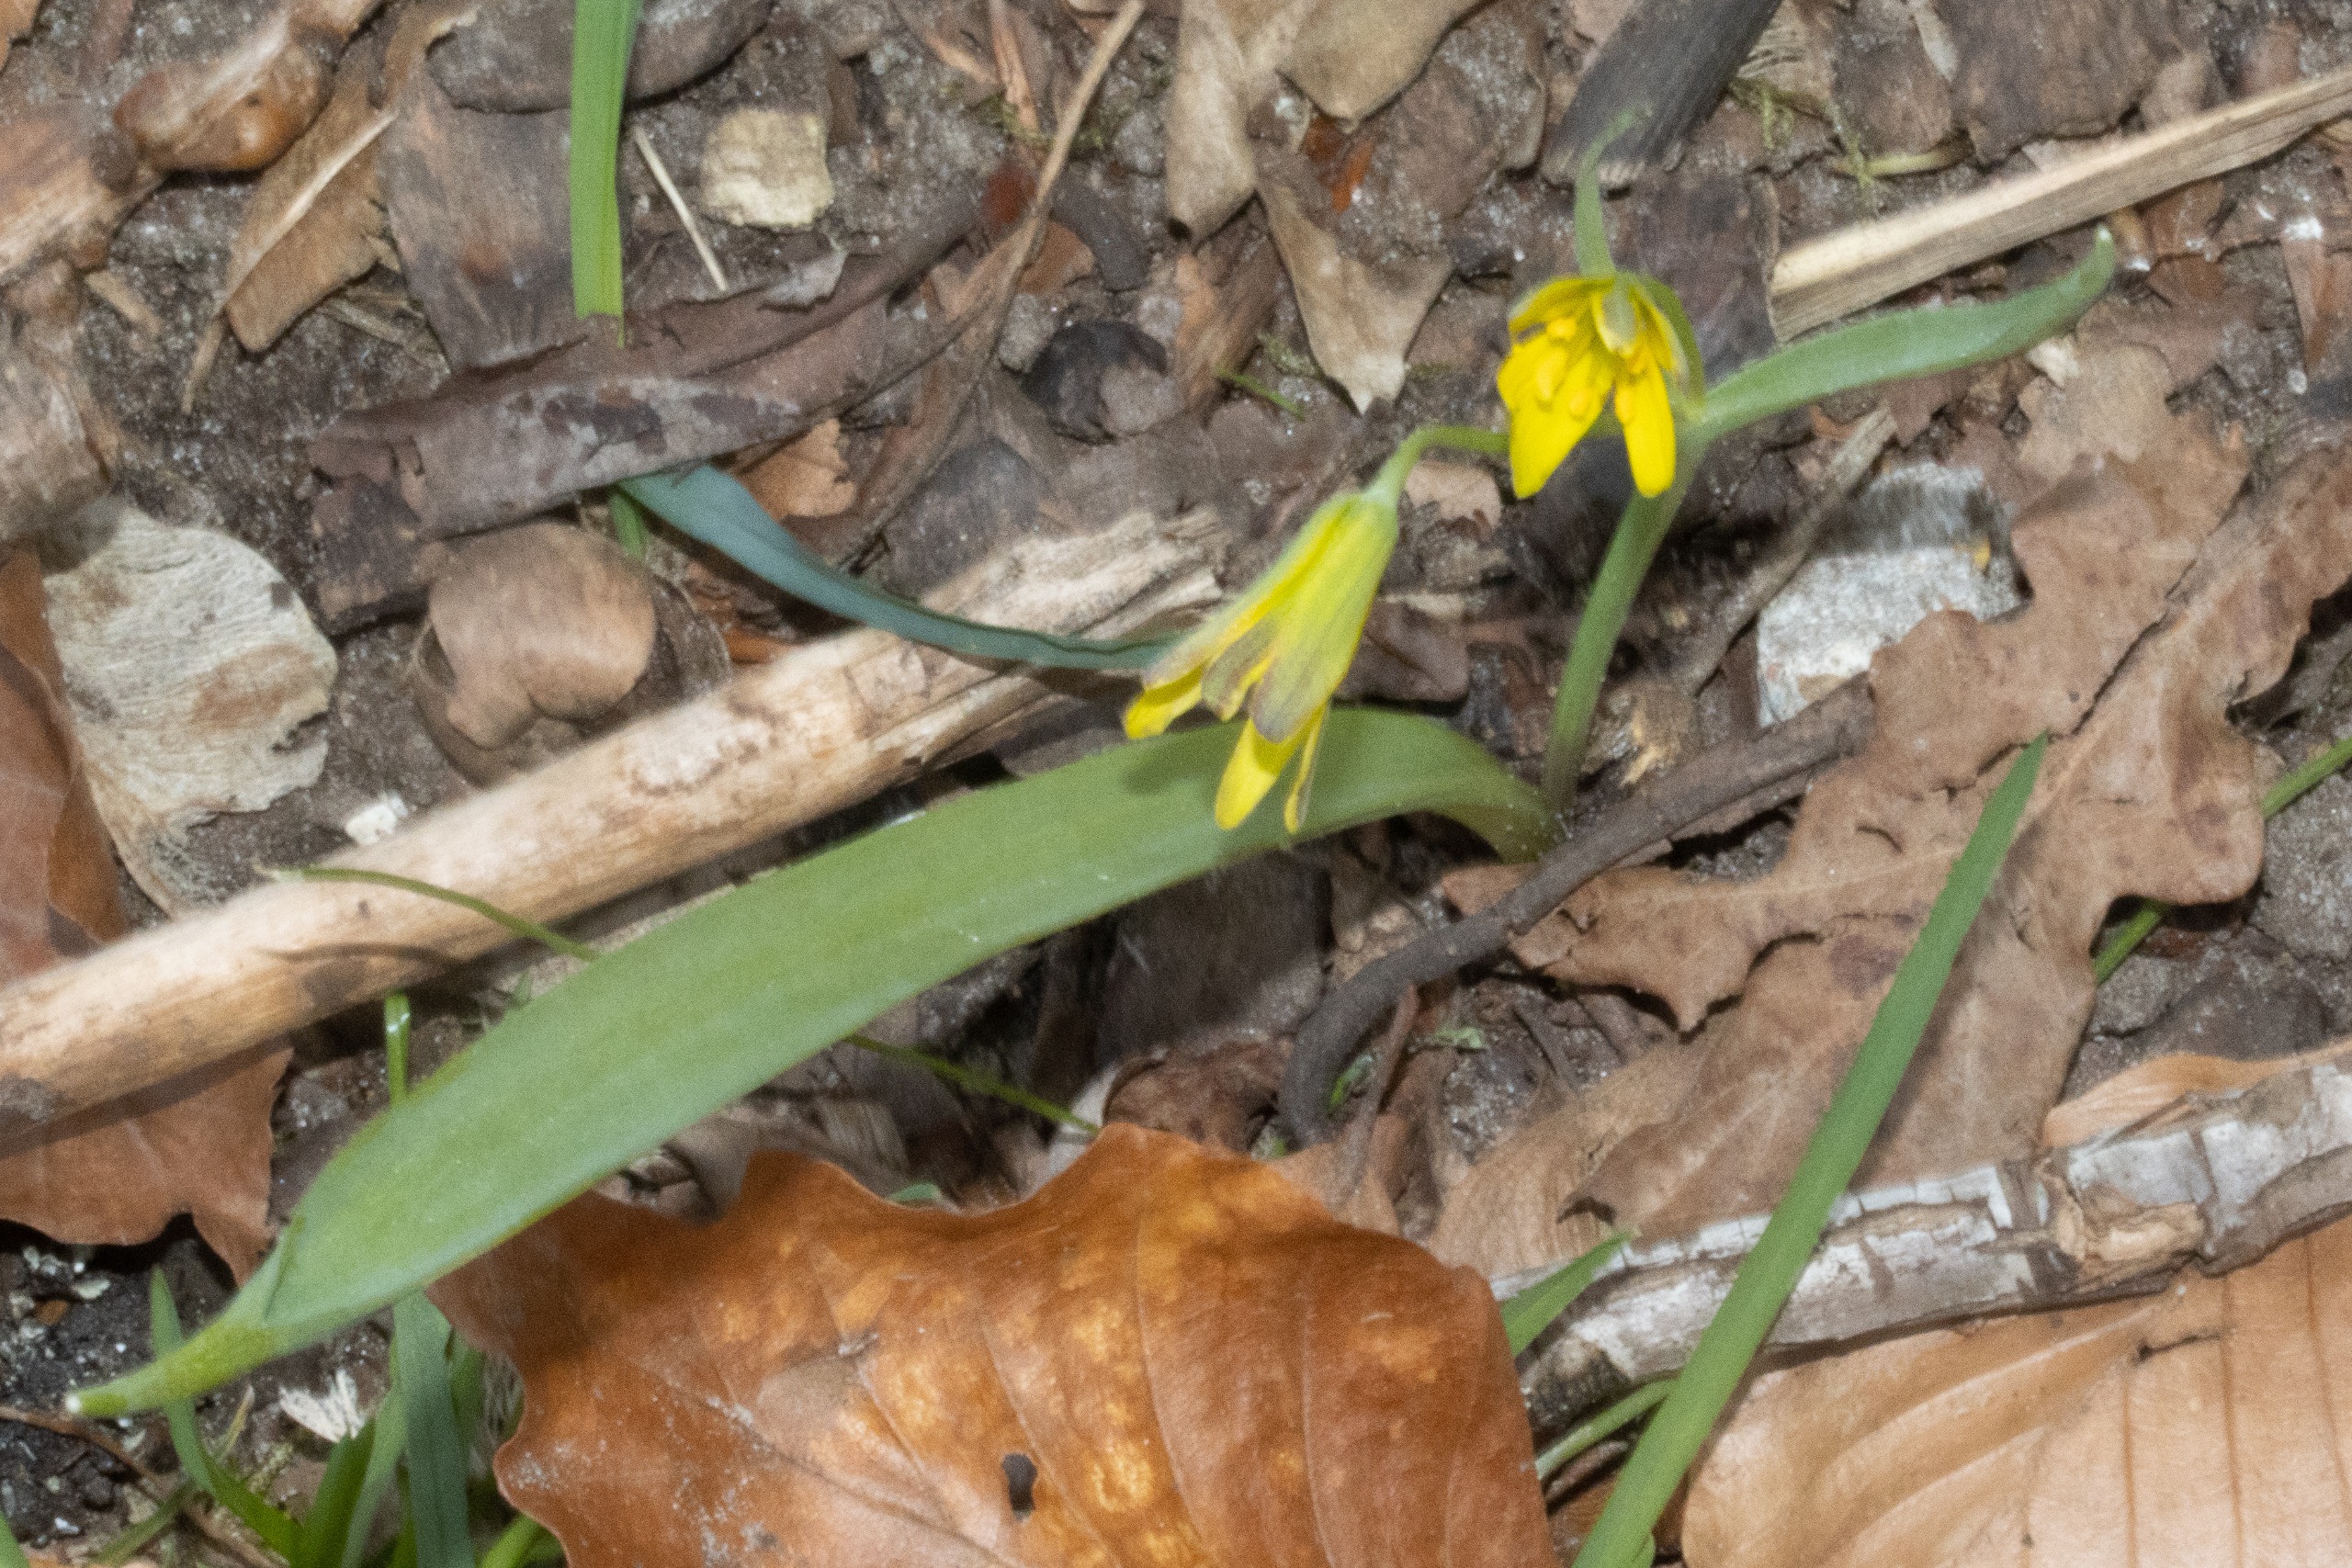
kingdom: Plantae
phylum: Tracheophyta
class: Liliopsida
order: Liliales
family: Liliaceae
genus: Gagea
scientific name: Gagea lutea
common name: Almindelig guldstjerne
